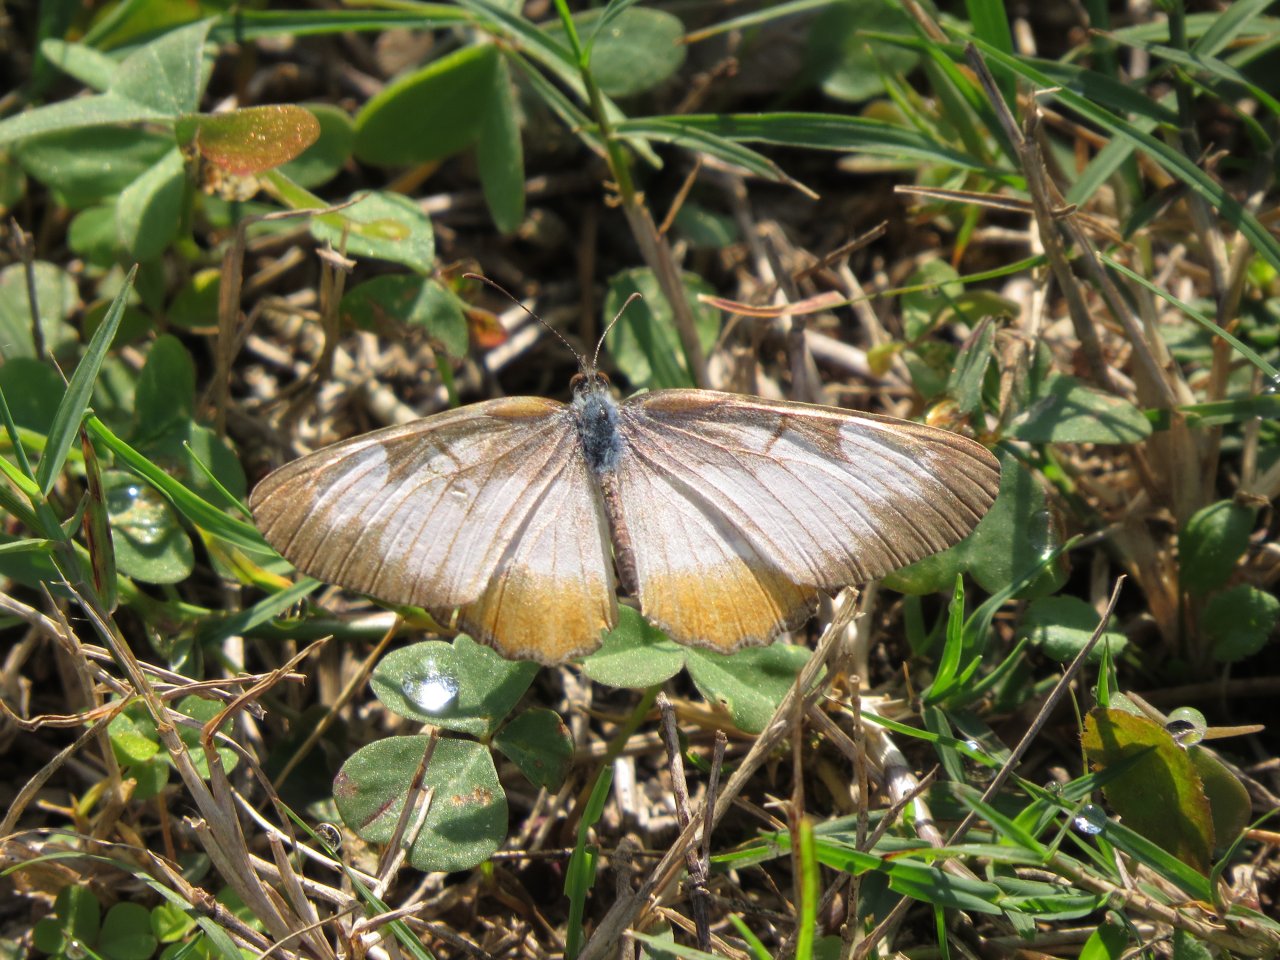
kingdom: Animalia
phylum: Arthropoda
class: Insecta
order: Lepidoptera
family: Nymphalidae
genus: Mestra
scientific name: Mestra amymone
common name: Common Mestra
